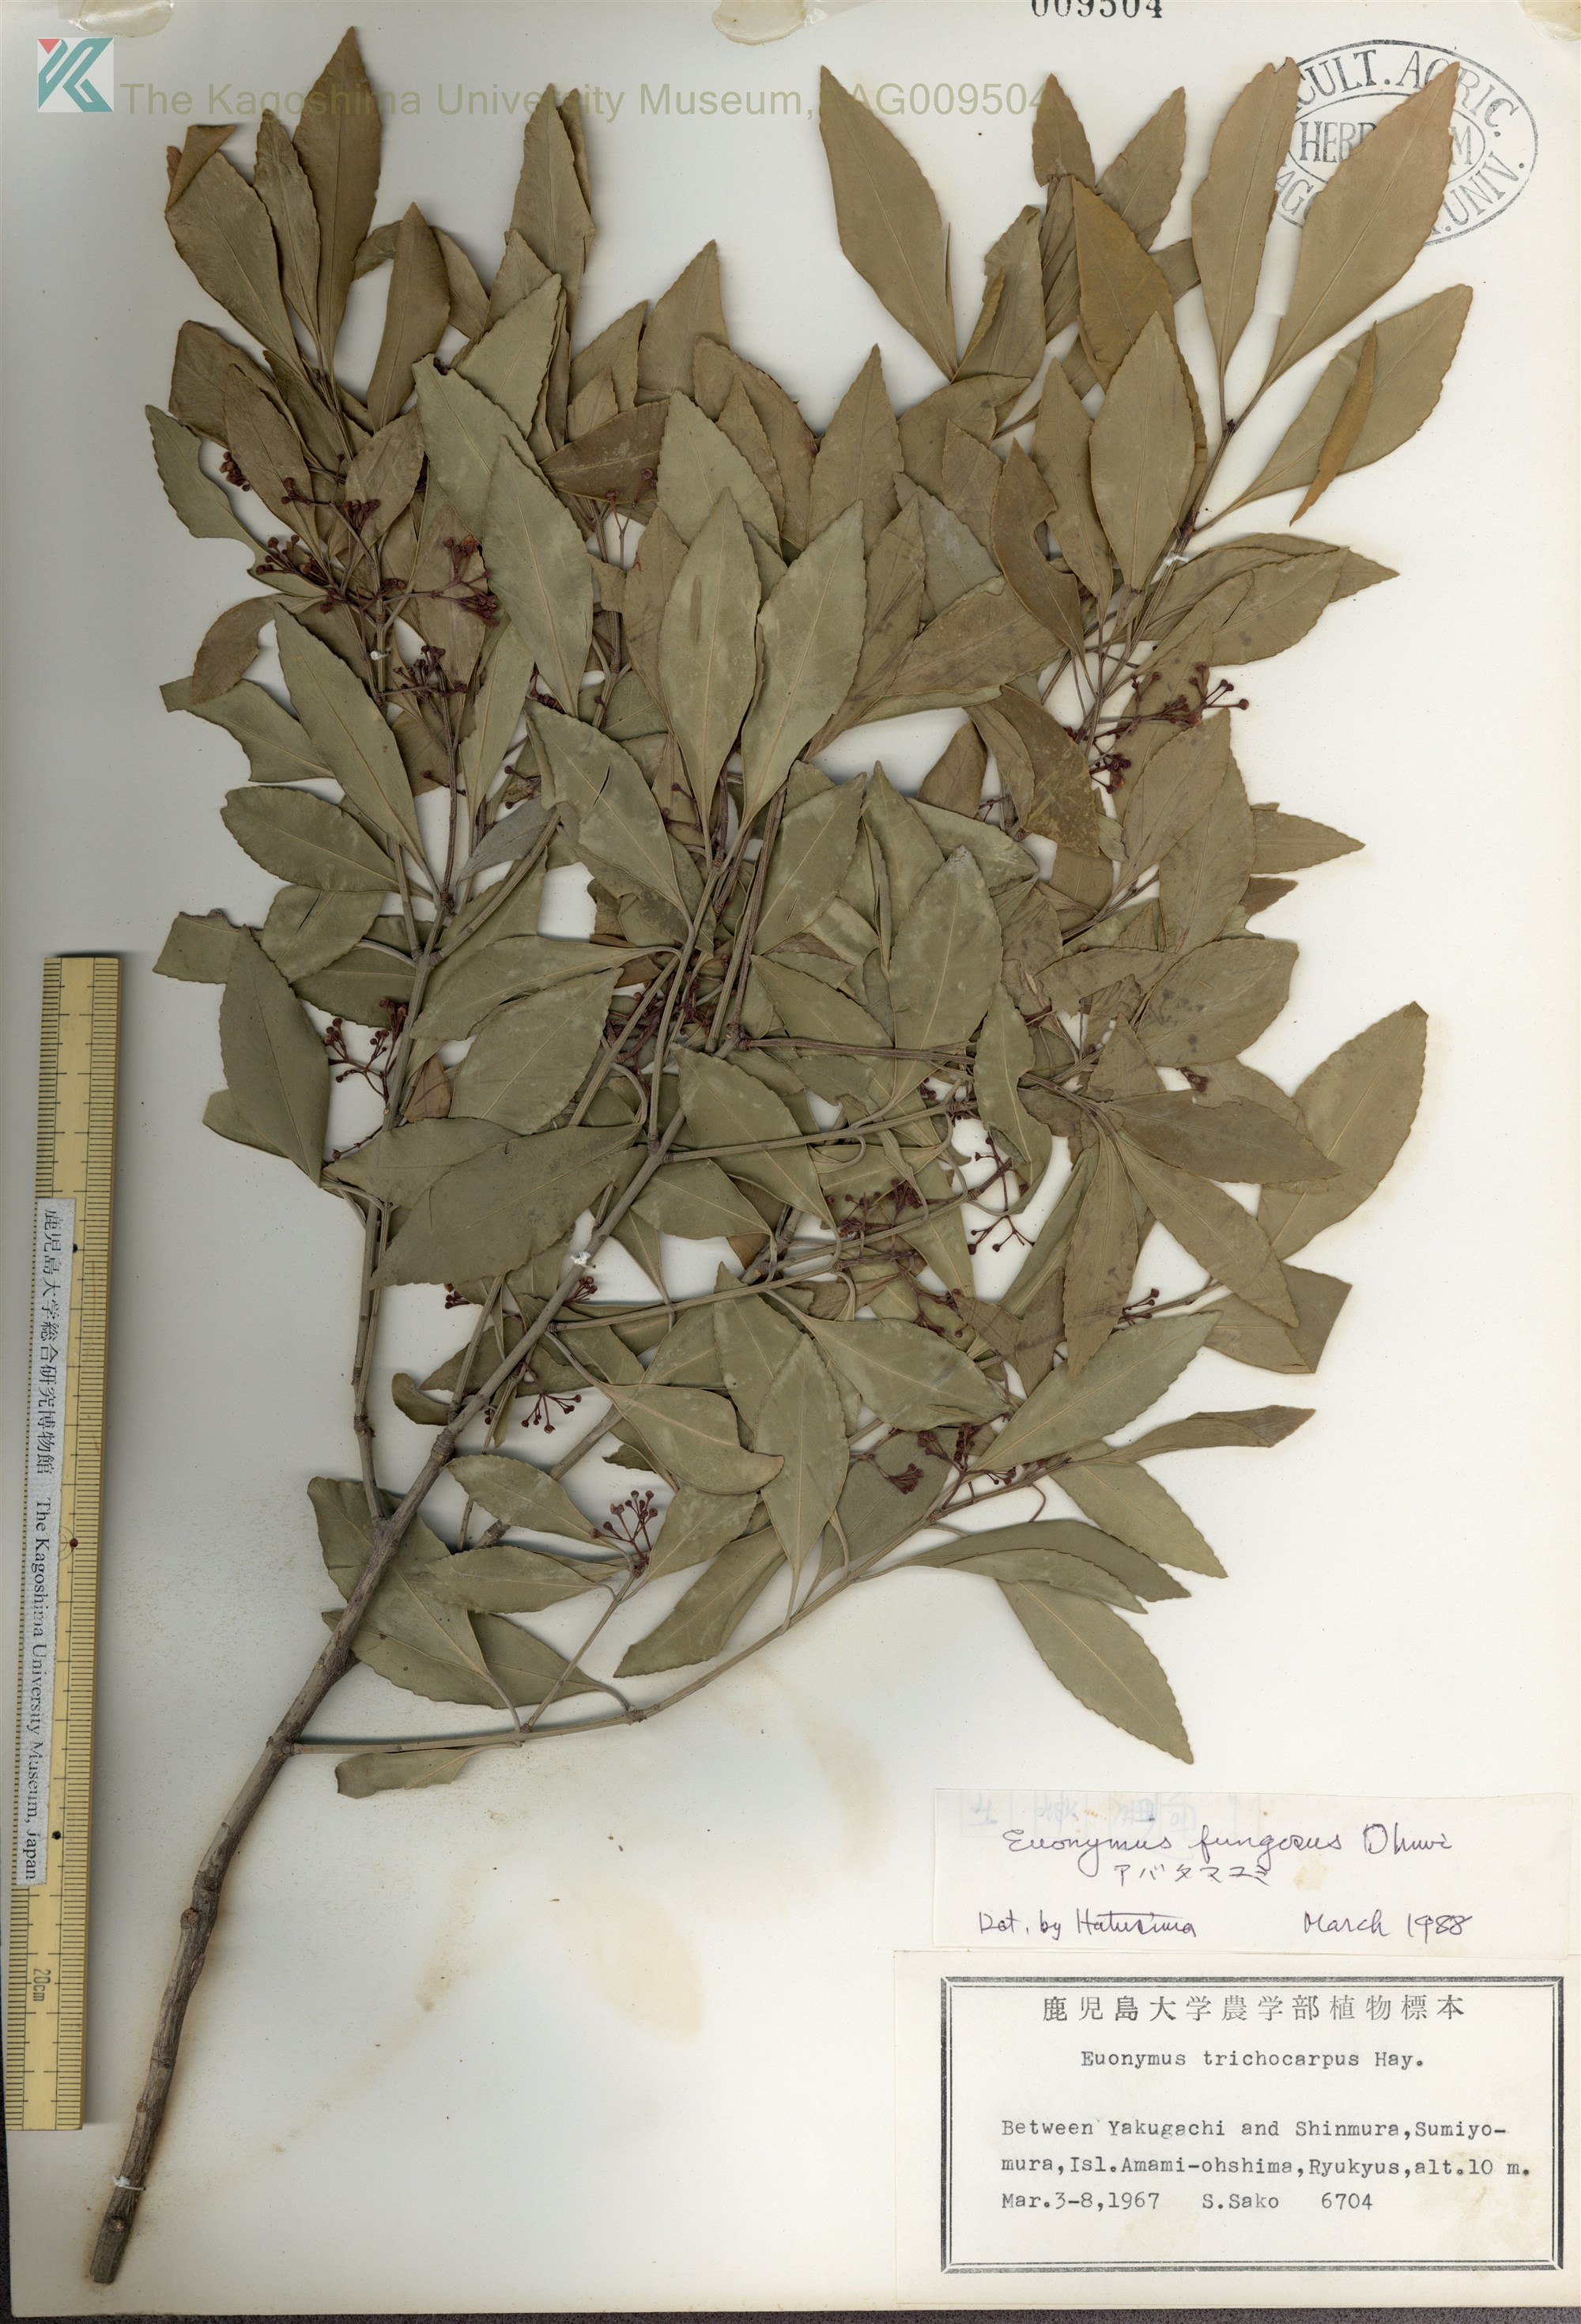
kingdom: Plantae
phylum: Tracheophyta
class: Magnoliopsida
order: Celastrales
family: Celastraceae
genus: Euonymus
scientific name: Euonymus echinatus
